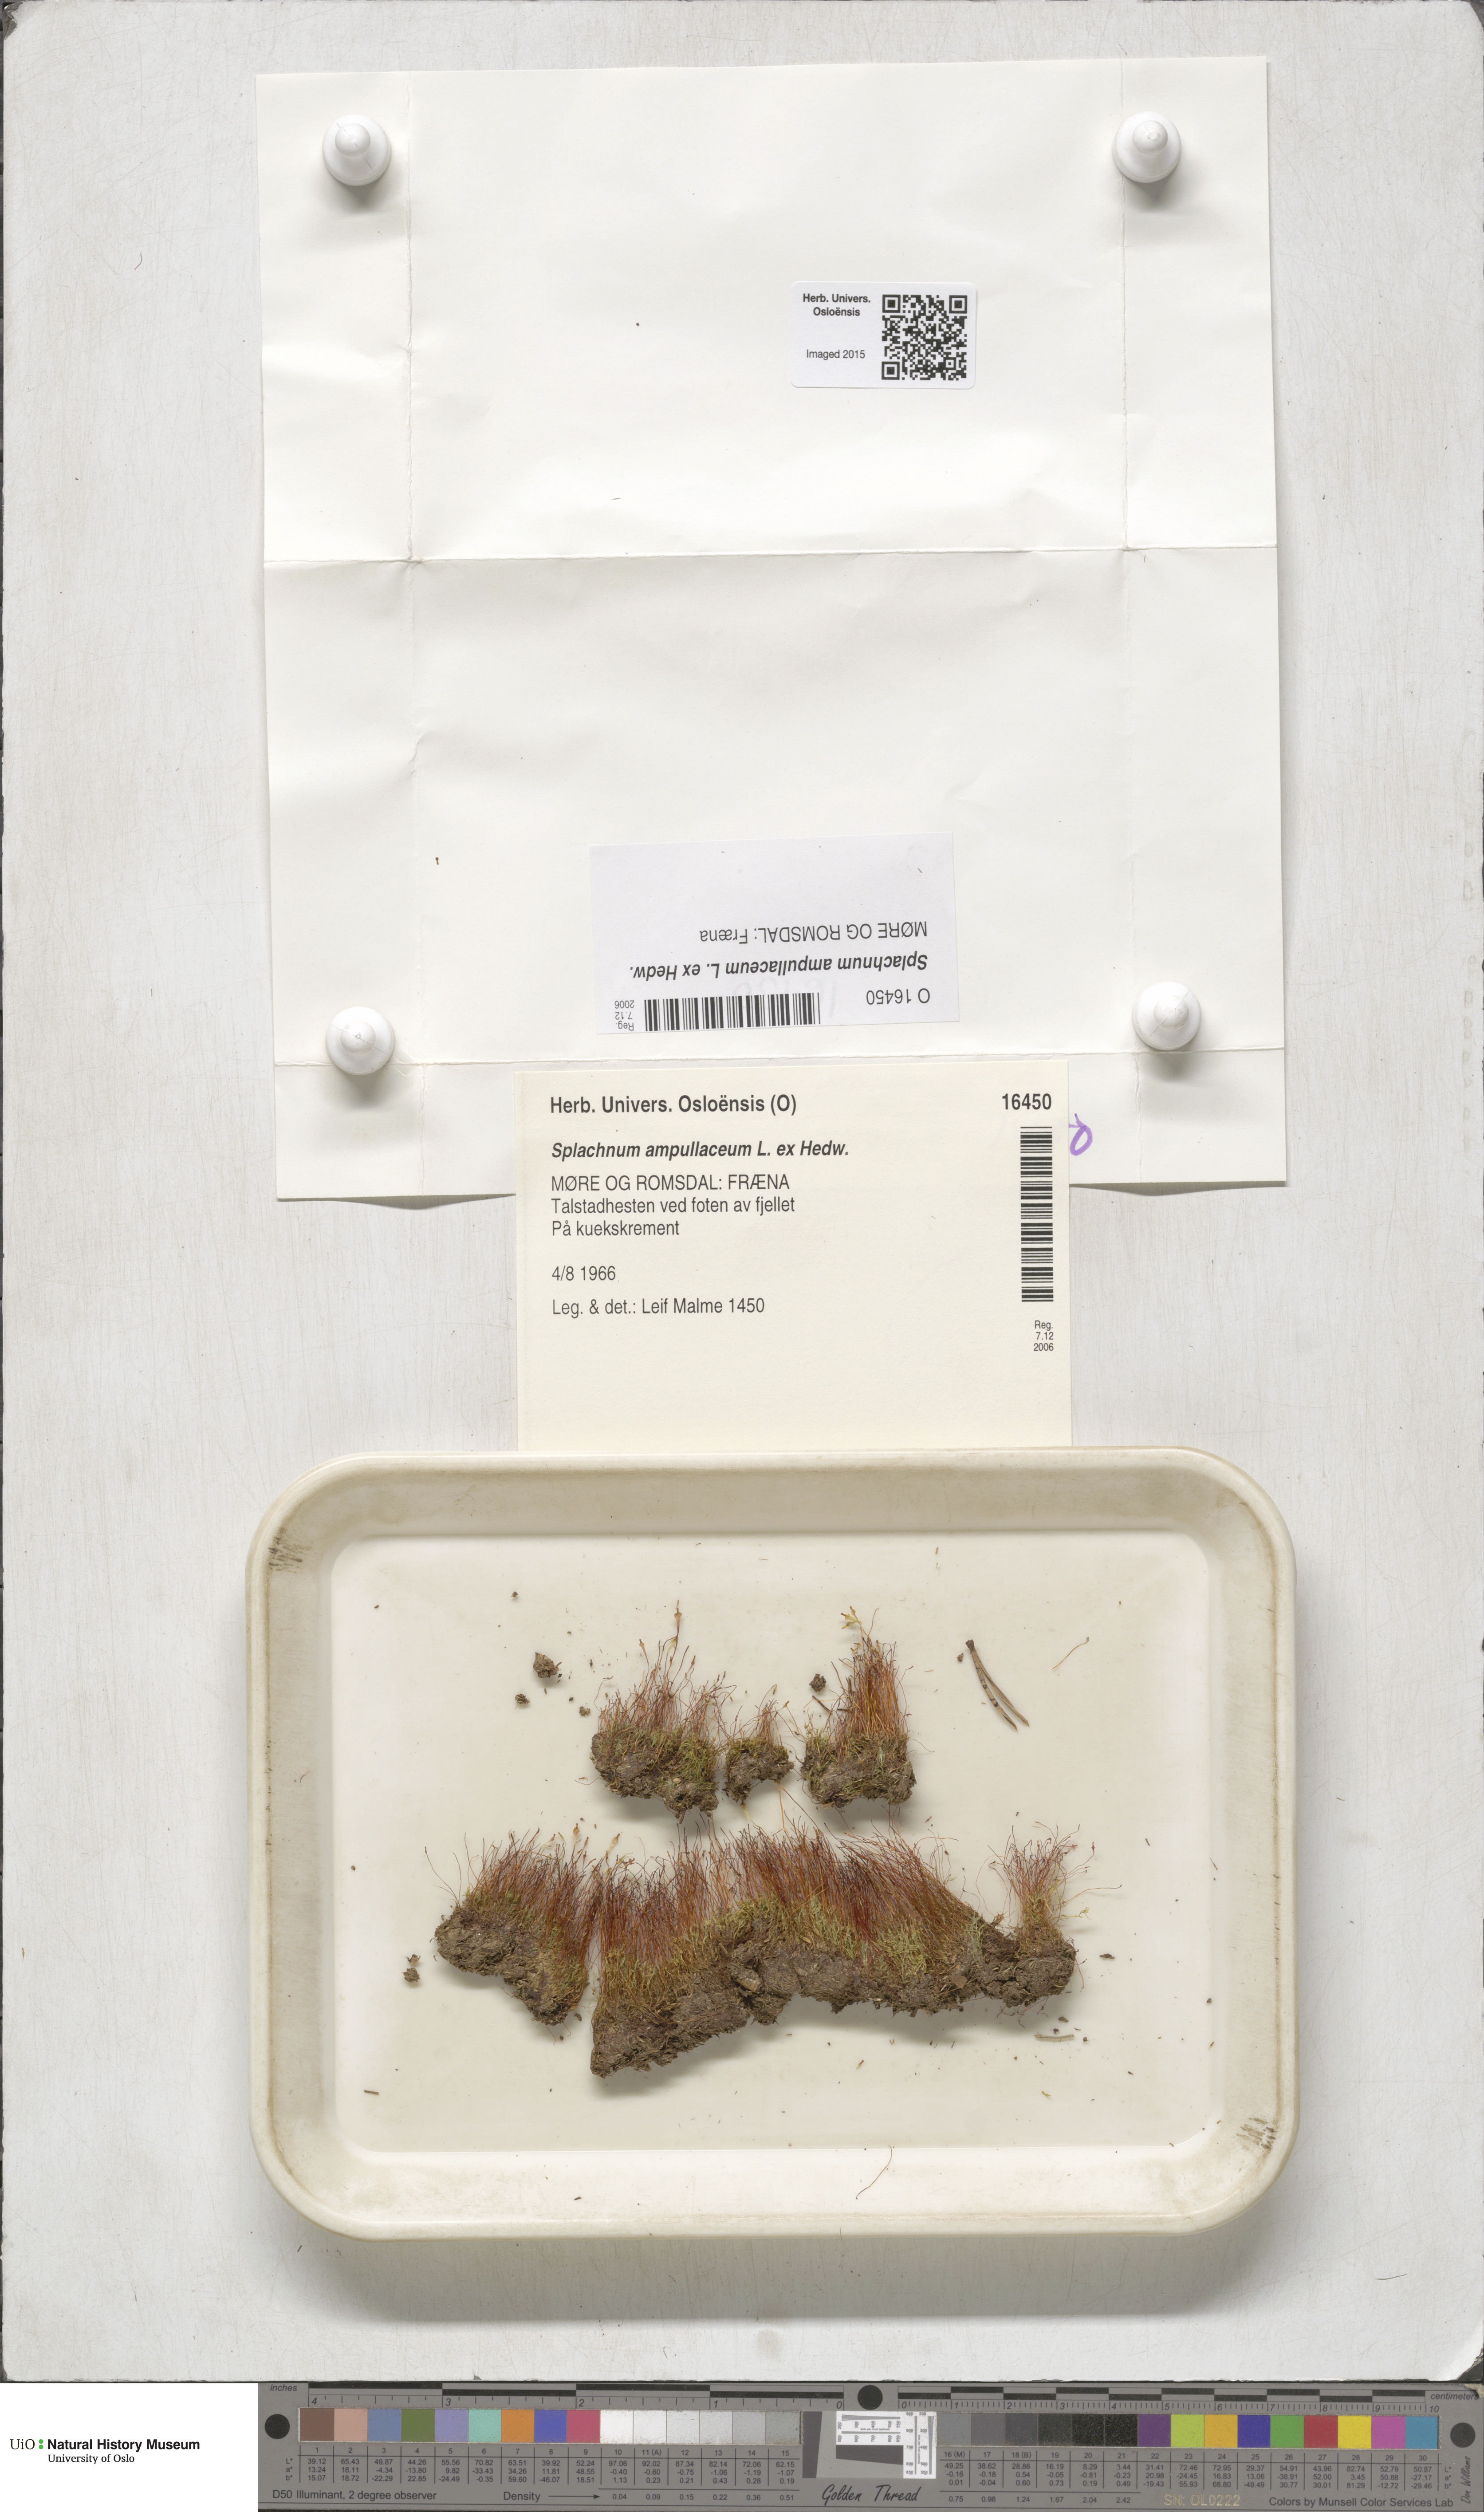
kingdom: Plantae
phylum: Bryophyta
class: Bryopsida
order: Splachnales
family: Splachnaceae
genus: Splachnum
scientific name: Splachnum ampullaceum
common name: Cruet dung moss
